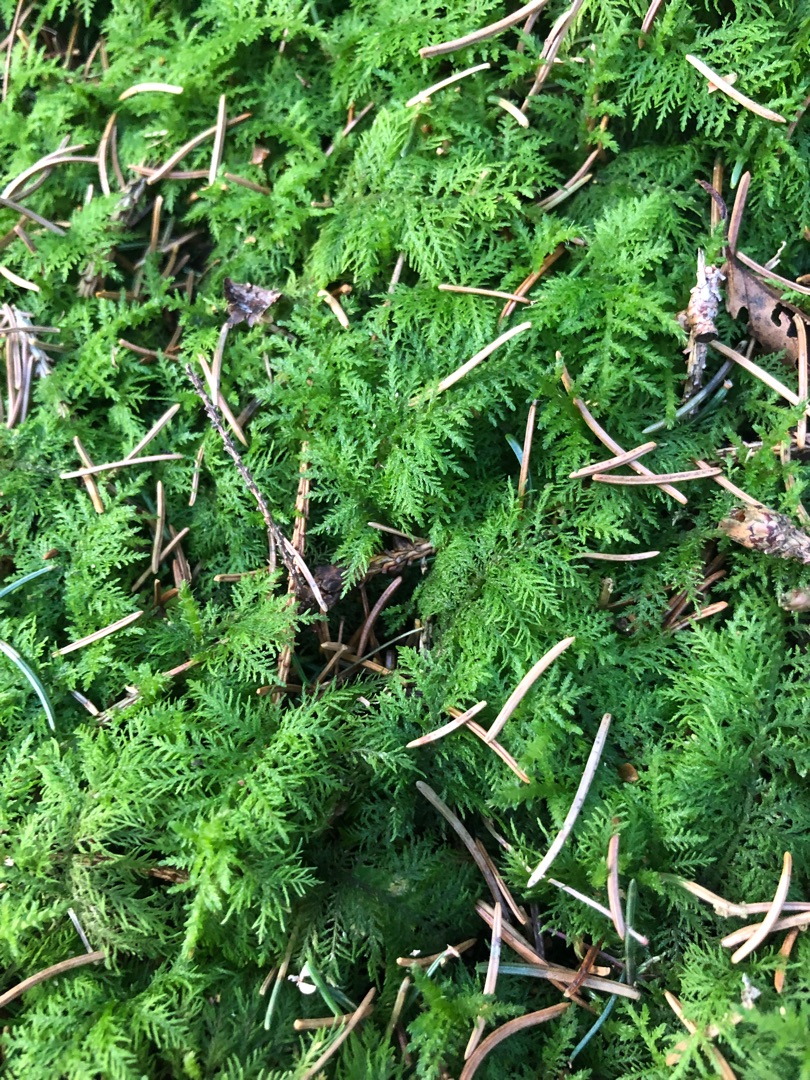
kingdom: Plantae
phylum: Bryophyta
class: Bryopsida
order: Hypnales
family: Thuidiaceae
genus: Thuidium
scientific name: Thuidium tamariscinum
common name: Pryd-bregnemos
